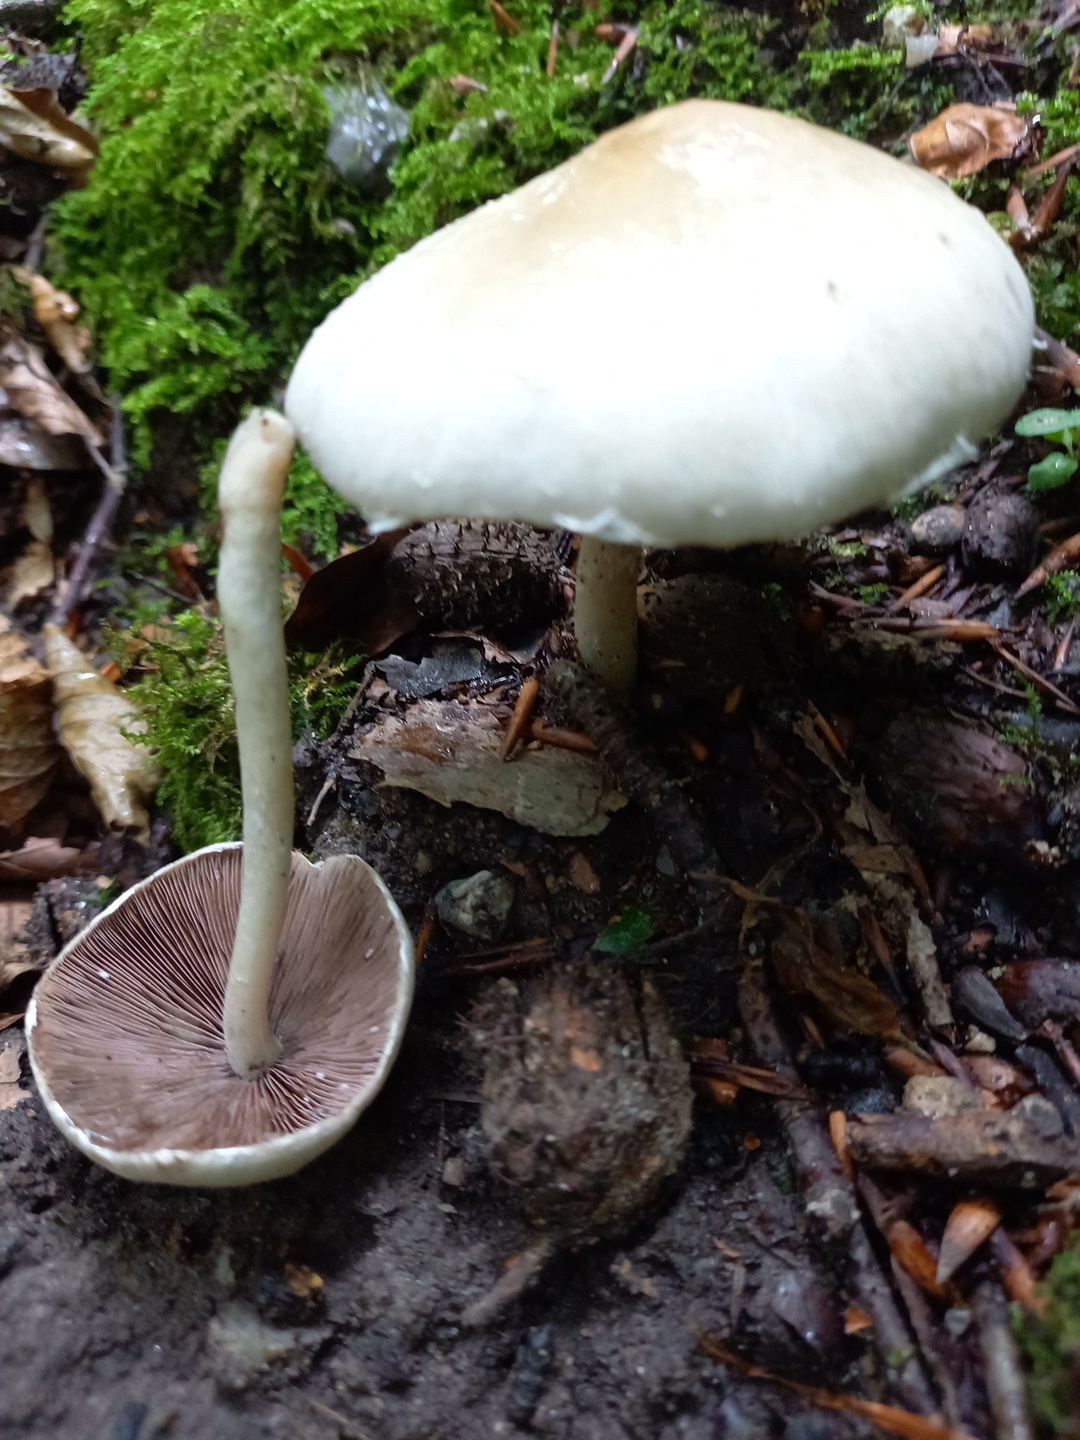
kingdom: Fungi
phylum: Basidiomycota
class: Agaricomycetes
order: Agaricales
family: Psathyrellaceae
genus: Candolleomyces
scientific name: Candolleomyces candolleanus
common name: Candolles mørkhat
